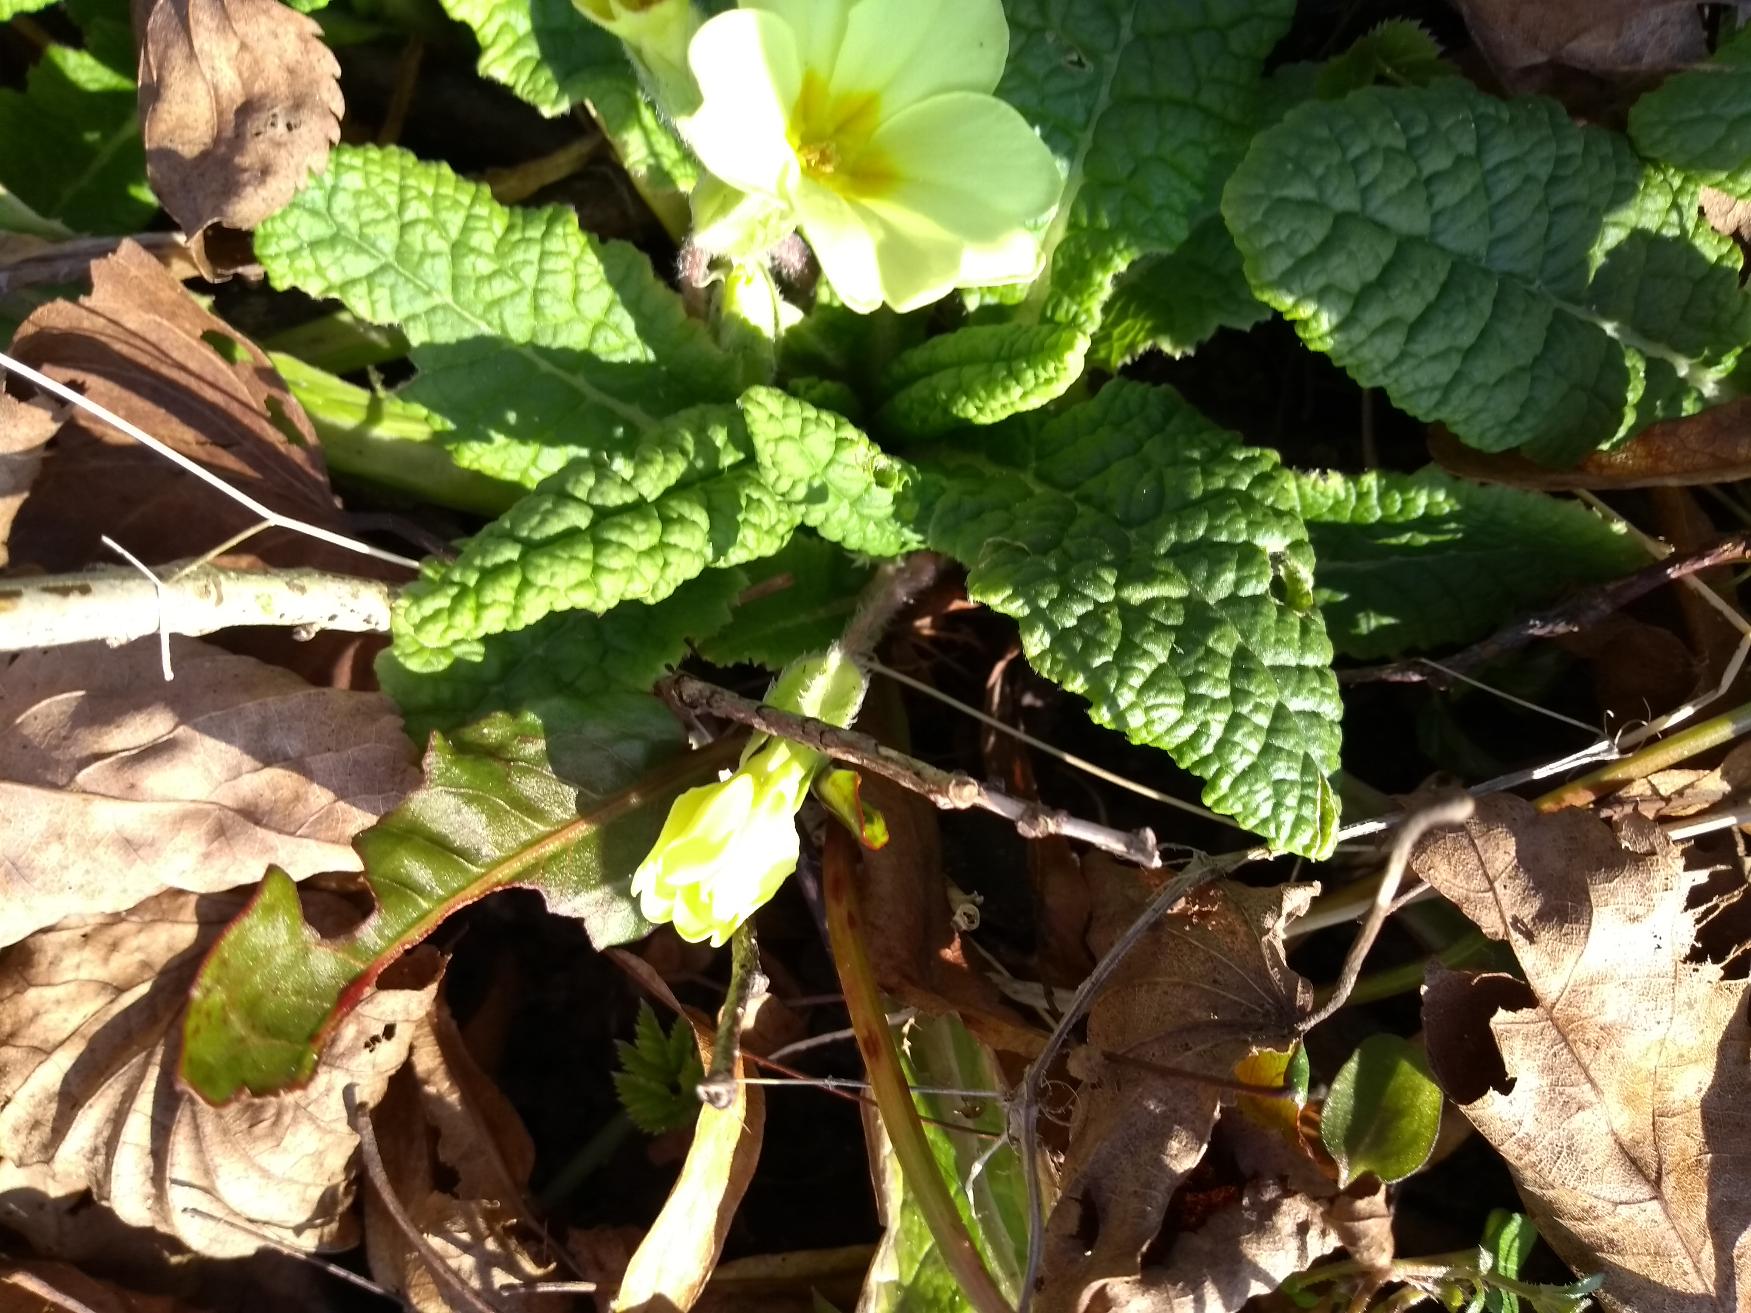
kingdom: Plantae
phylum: Tracheophyta
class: Magnoliopsida
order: Ericales
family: Primulaceae
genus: Primula
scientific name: Primula vulgaris
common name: Storblomstret kodriver
